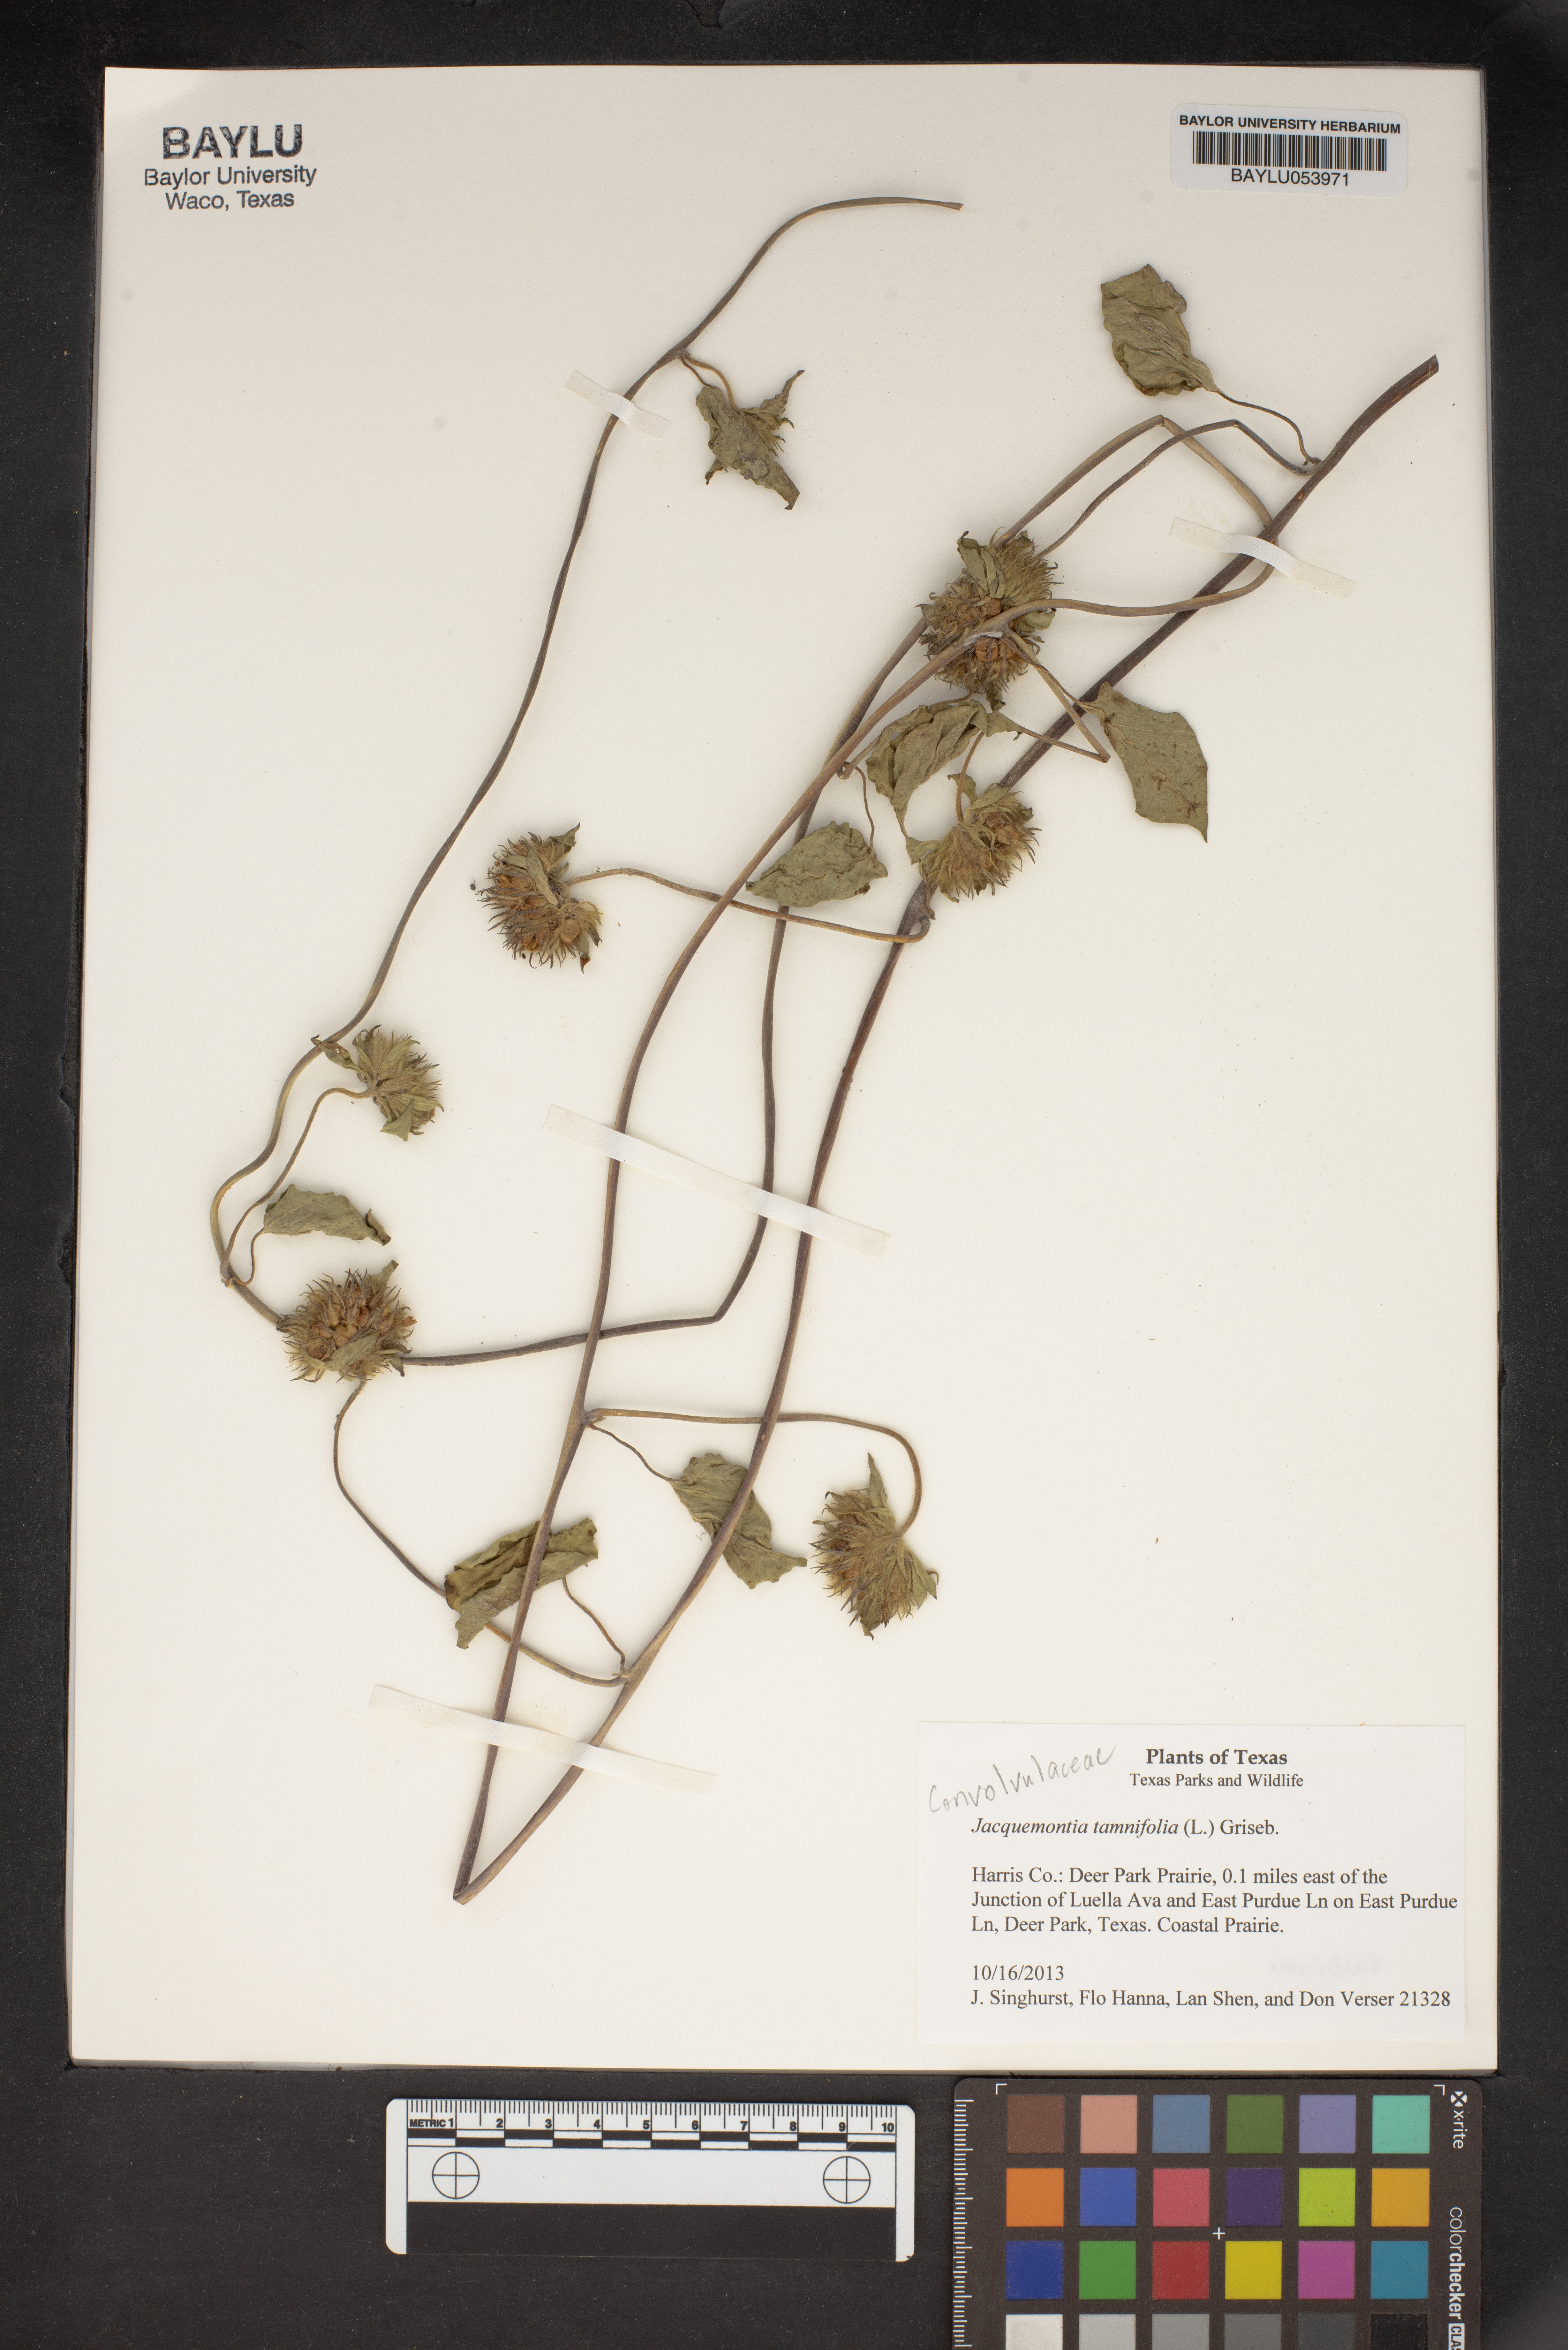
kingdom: Plantae
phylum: Tracheophyta
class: Magnoliopsida
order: Solanales
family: Convolvulaceae
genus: Jacquemontia
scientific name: Jacquemontia tamnifolia
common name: Hairy clustervine
